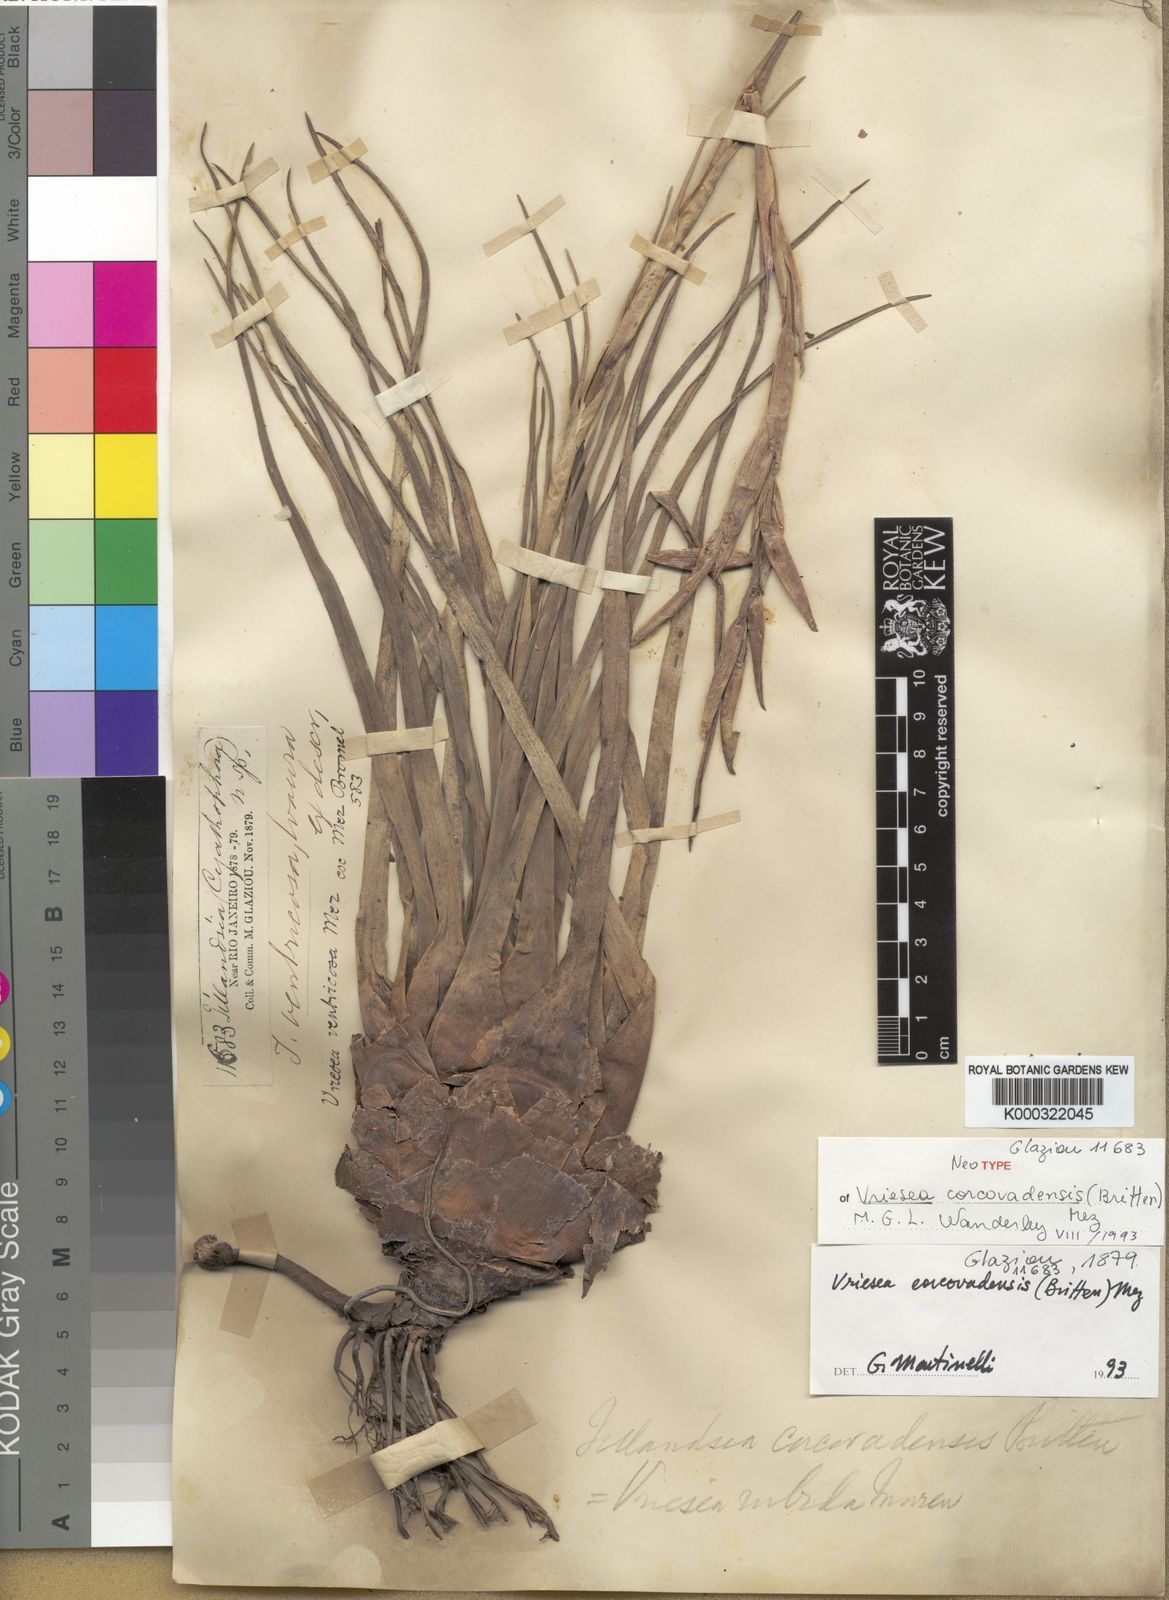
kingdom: Plantae
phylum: Tracheophyta
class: Liliopsida
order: Poales
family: Bromeliaceae
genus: Vriesea
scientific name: Vriesea corcovadensis
